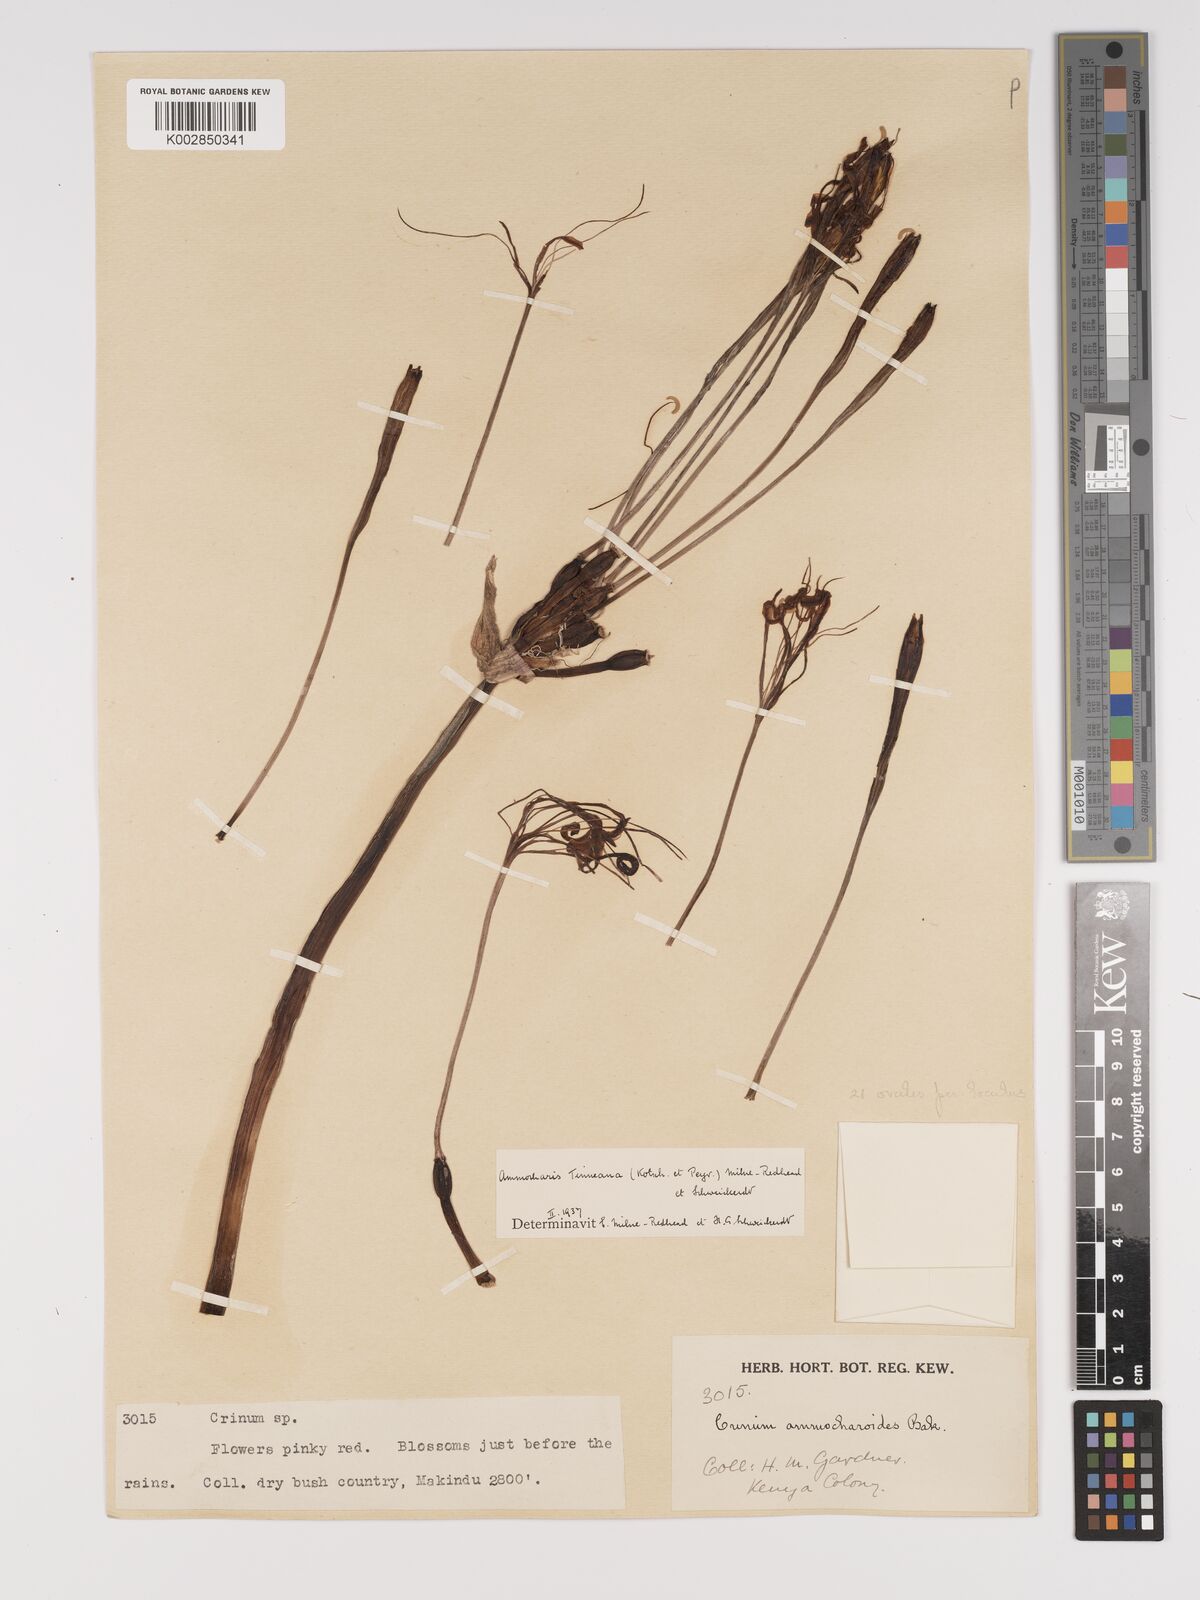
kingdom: Plantae
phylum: Tracheophyta
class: Liliopsida
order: Asparagales
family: Amaryllidaceae
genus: Ammocharis
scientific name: Ammocharis tinneana
